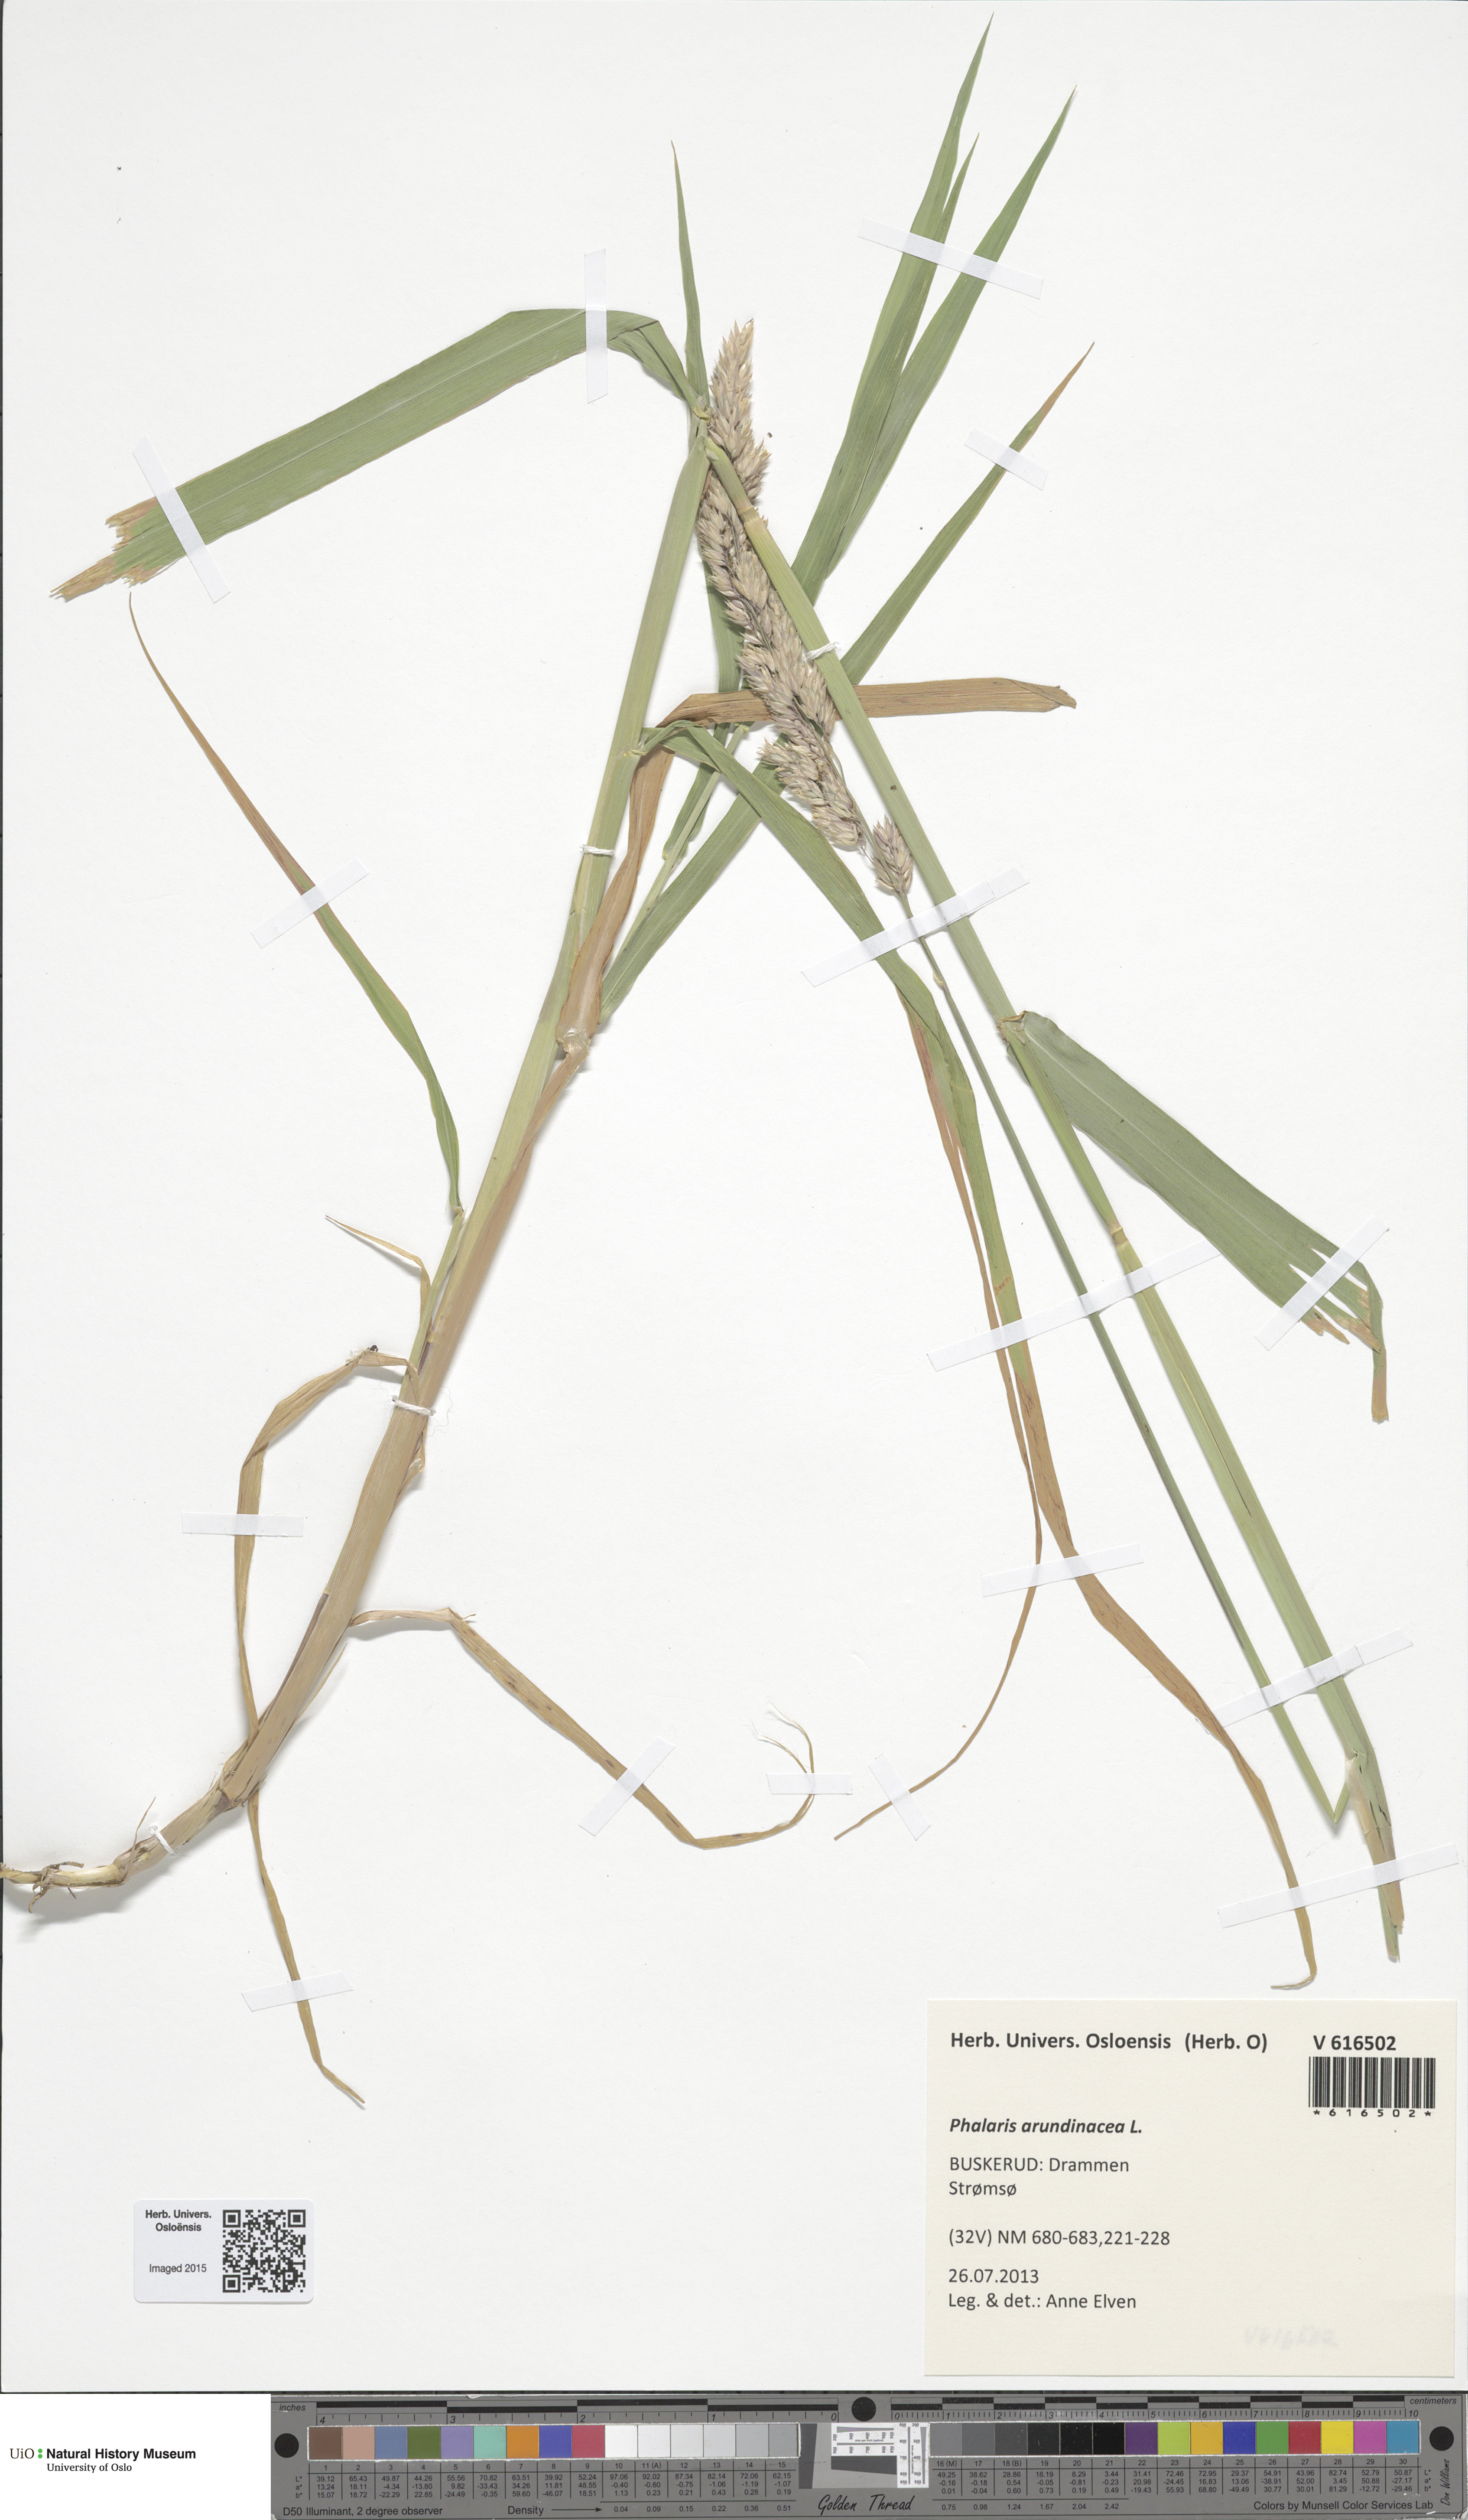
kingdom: Plantae
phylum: Tracheophyta
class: Liliopsida
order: Poales
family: Poaceae
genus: Phalaris
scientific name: Phalaris arundinacea
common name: Reed canary-grass
